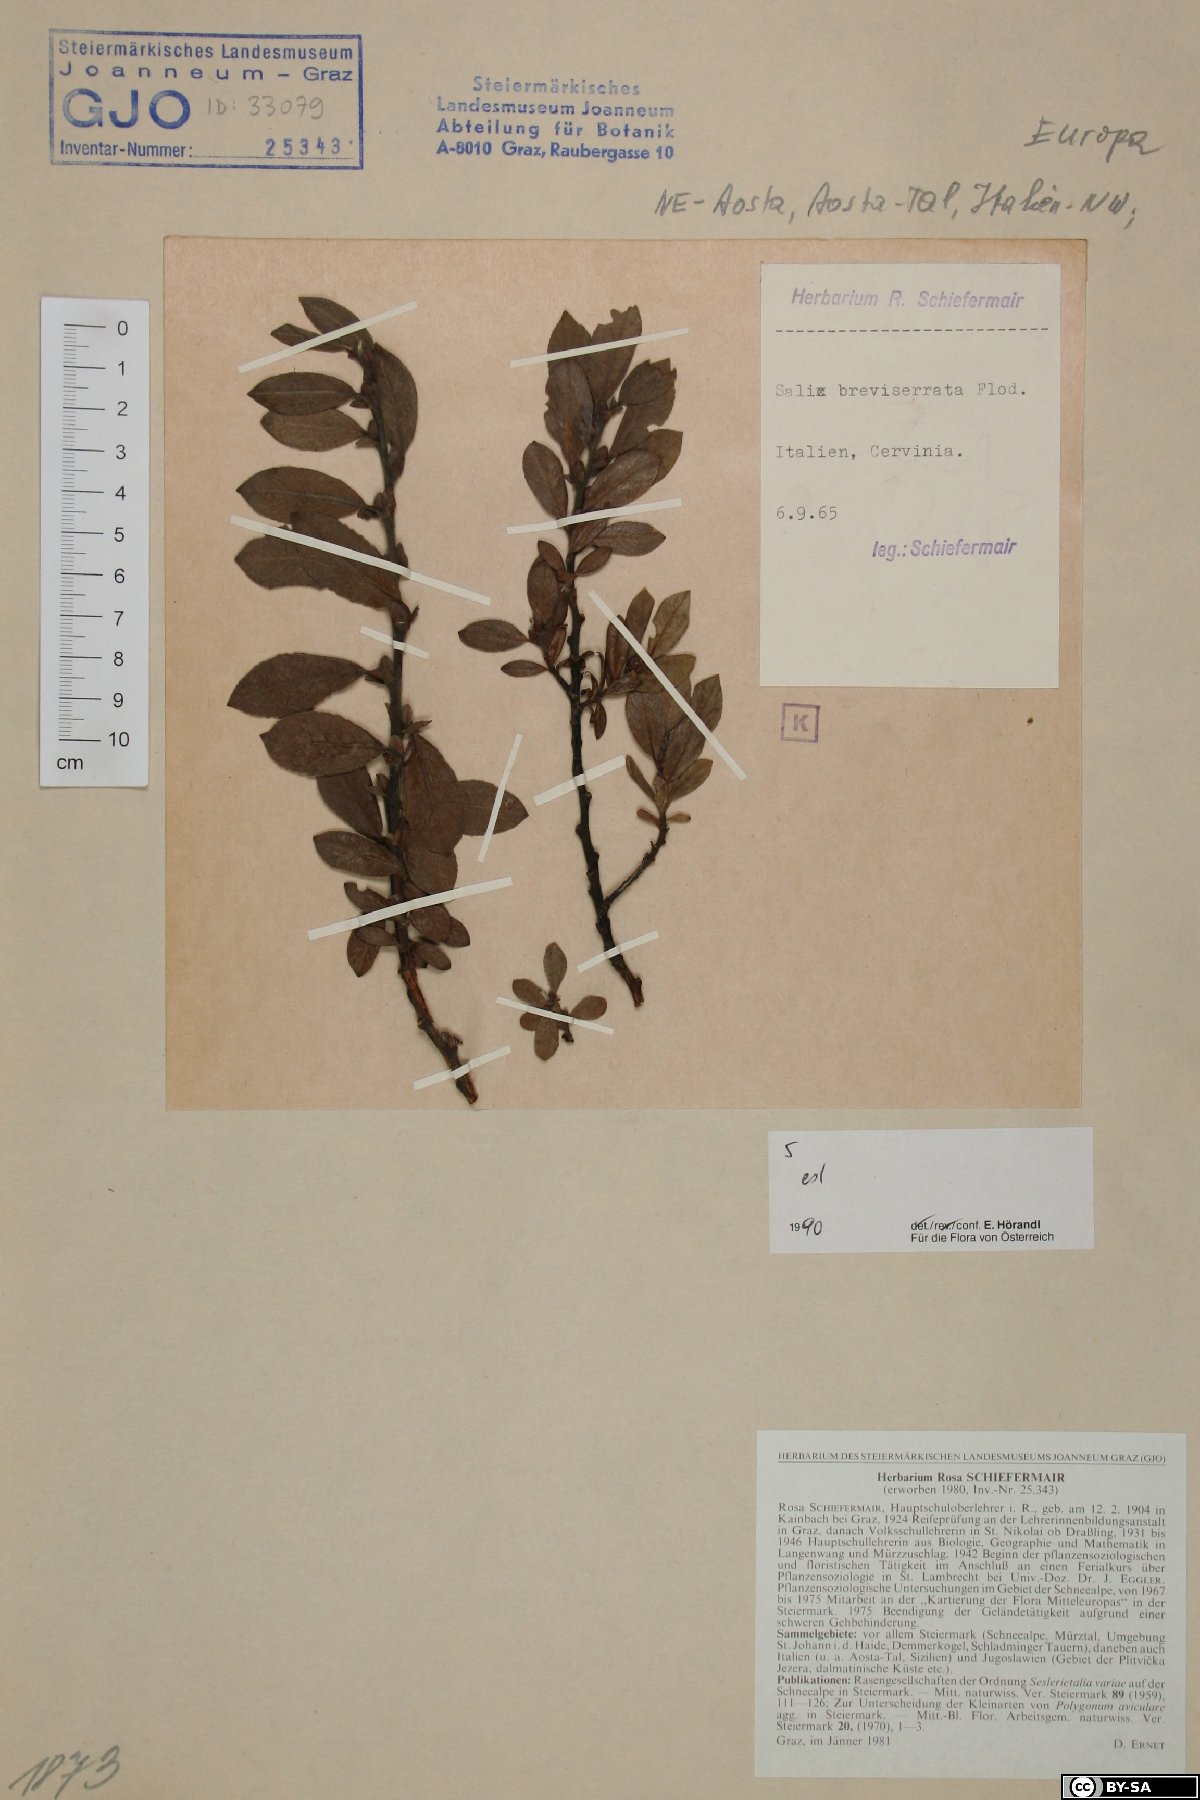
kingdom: Plantae
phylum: Tracheophyta
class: Magnoliopsida
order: Malpighiales
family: Salicaceae
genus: Salix
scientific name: Salix breviserrata
